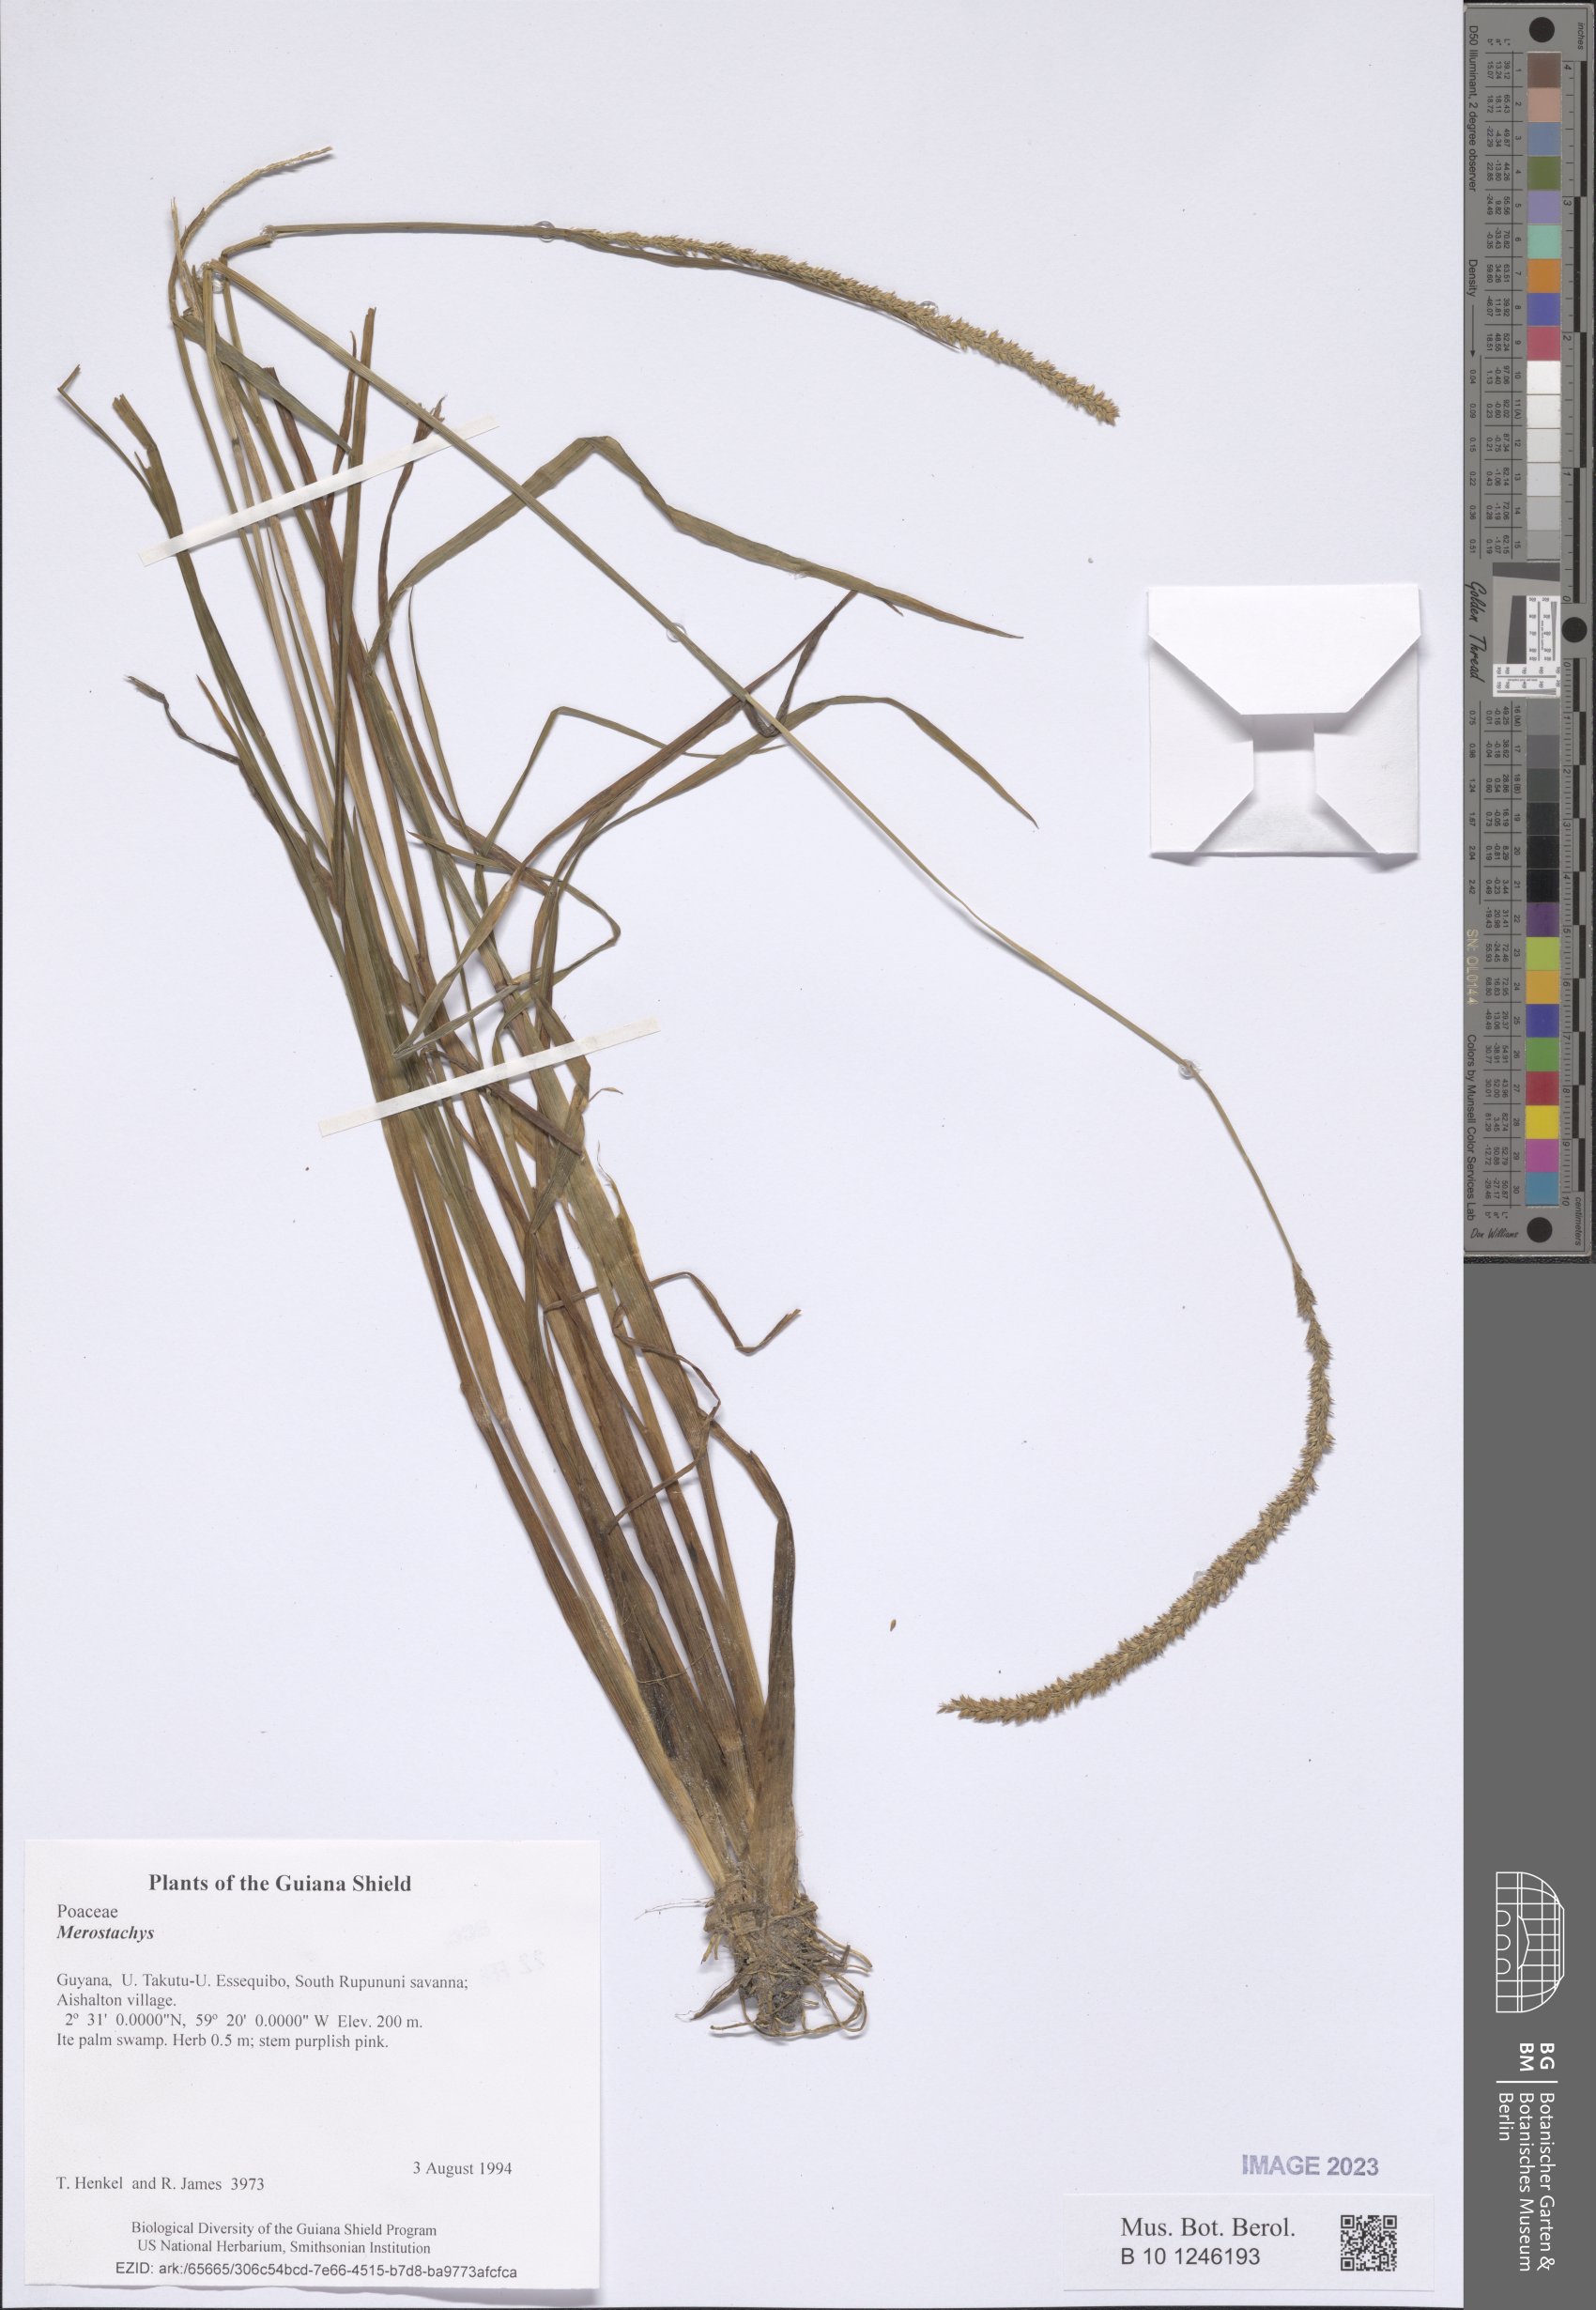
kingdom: Plantae
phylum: Tracheophyta
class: Liliopsida
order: Poales
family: Poaceae
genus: Merostachys
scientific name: Merostachys
